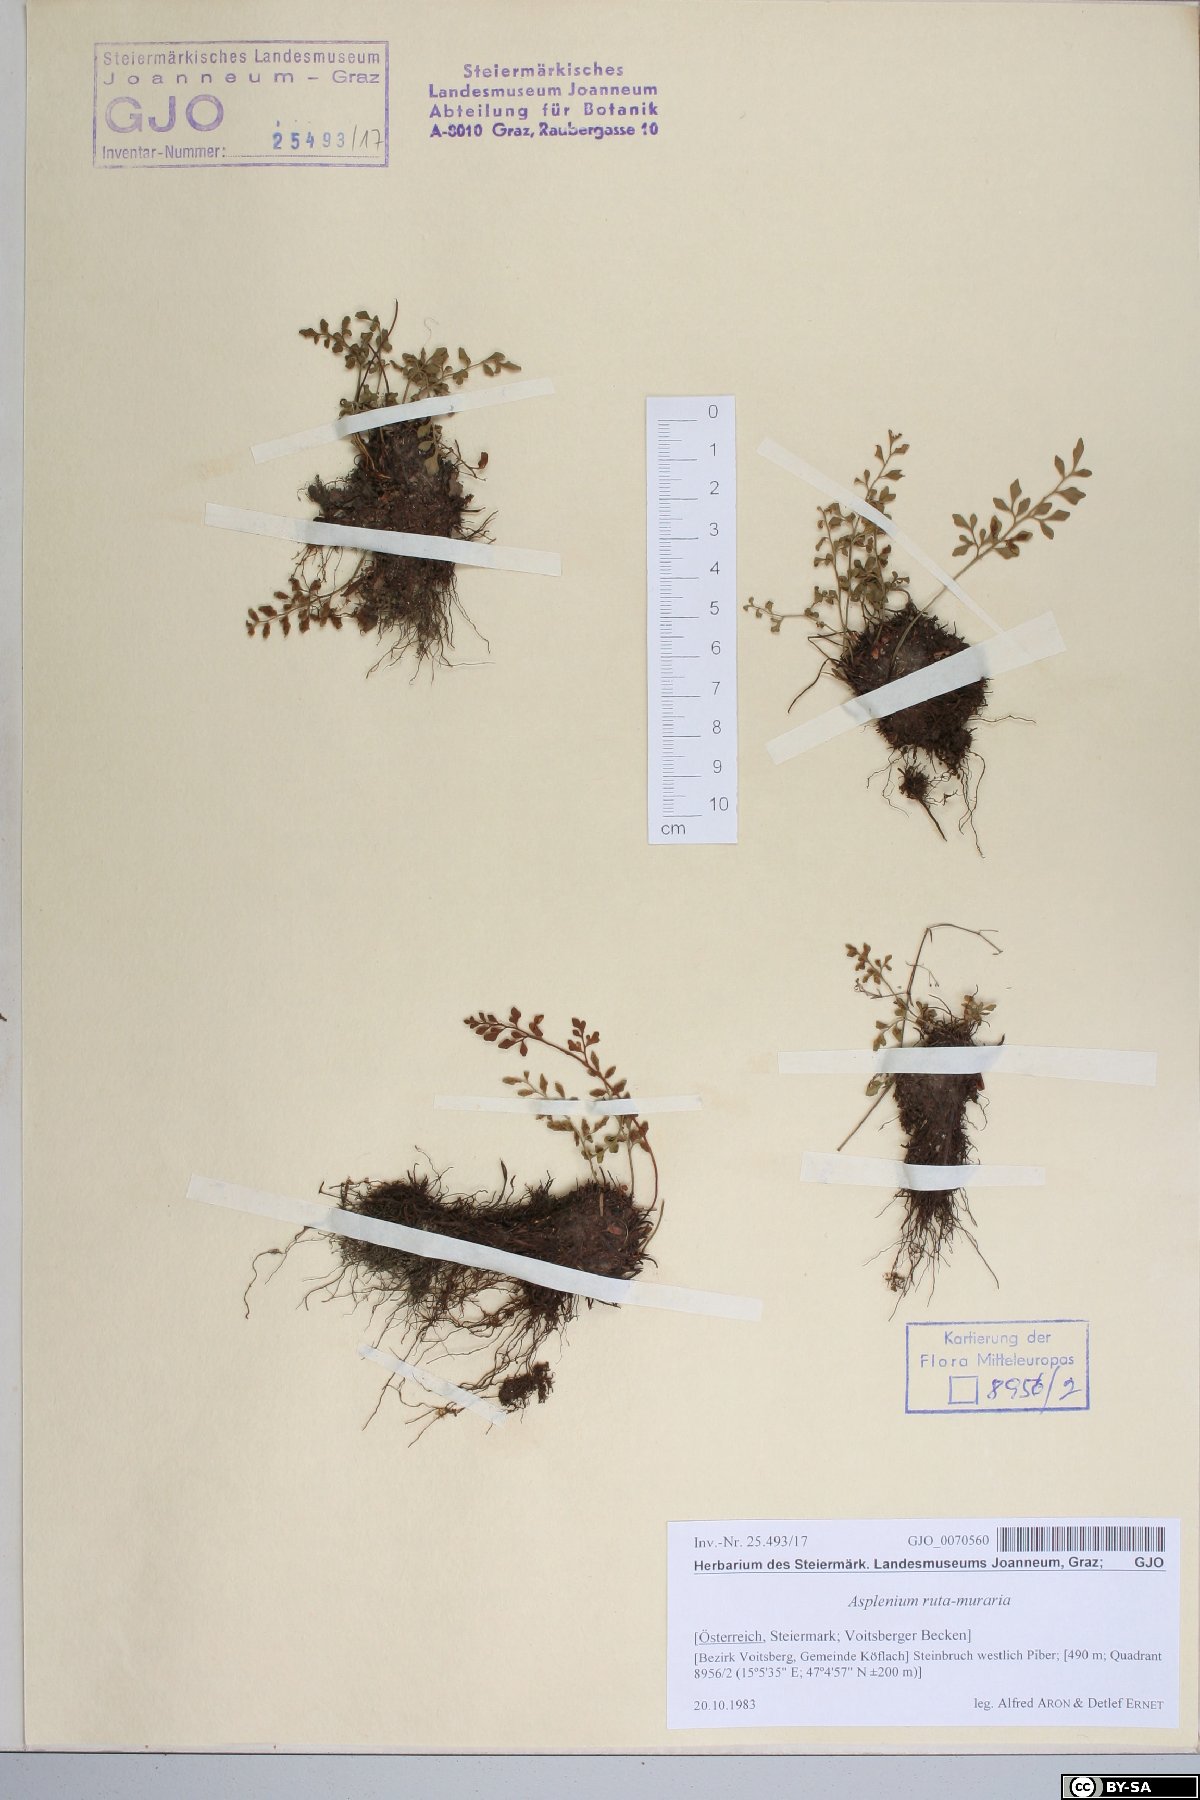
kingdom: Plantae
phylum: Tracheophyta
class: Polypodiopsida
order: Polypodiales
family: Aspleniaceae
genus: Asplenium
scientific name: Asplenium ruta-muraria
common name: Wall-rue
